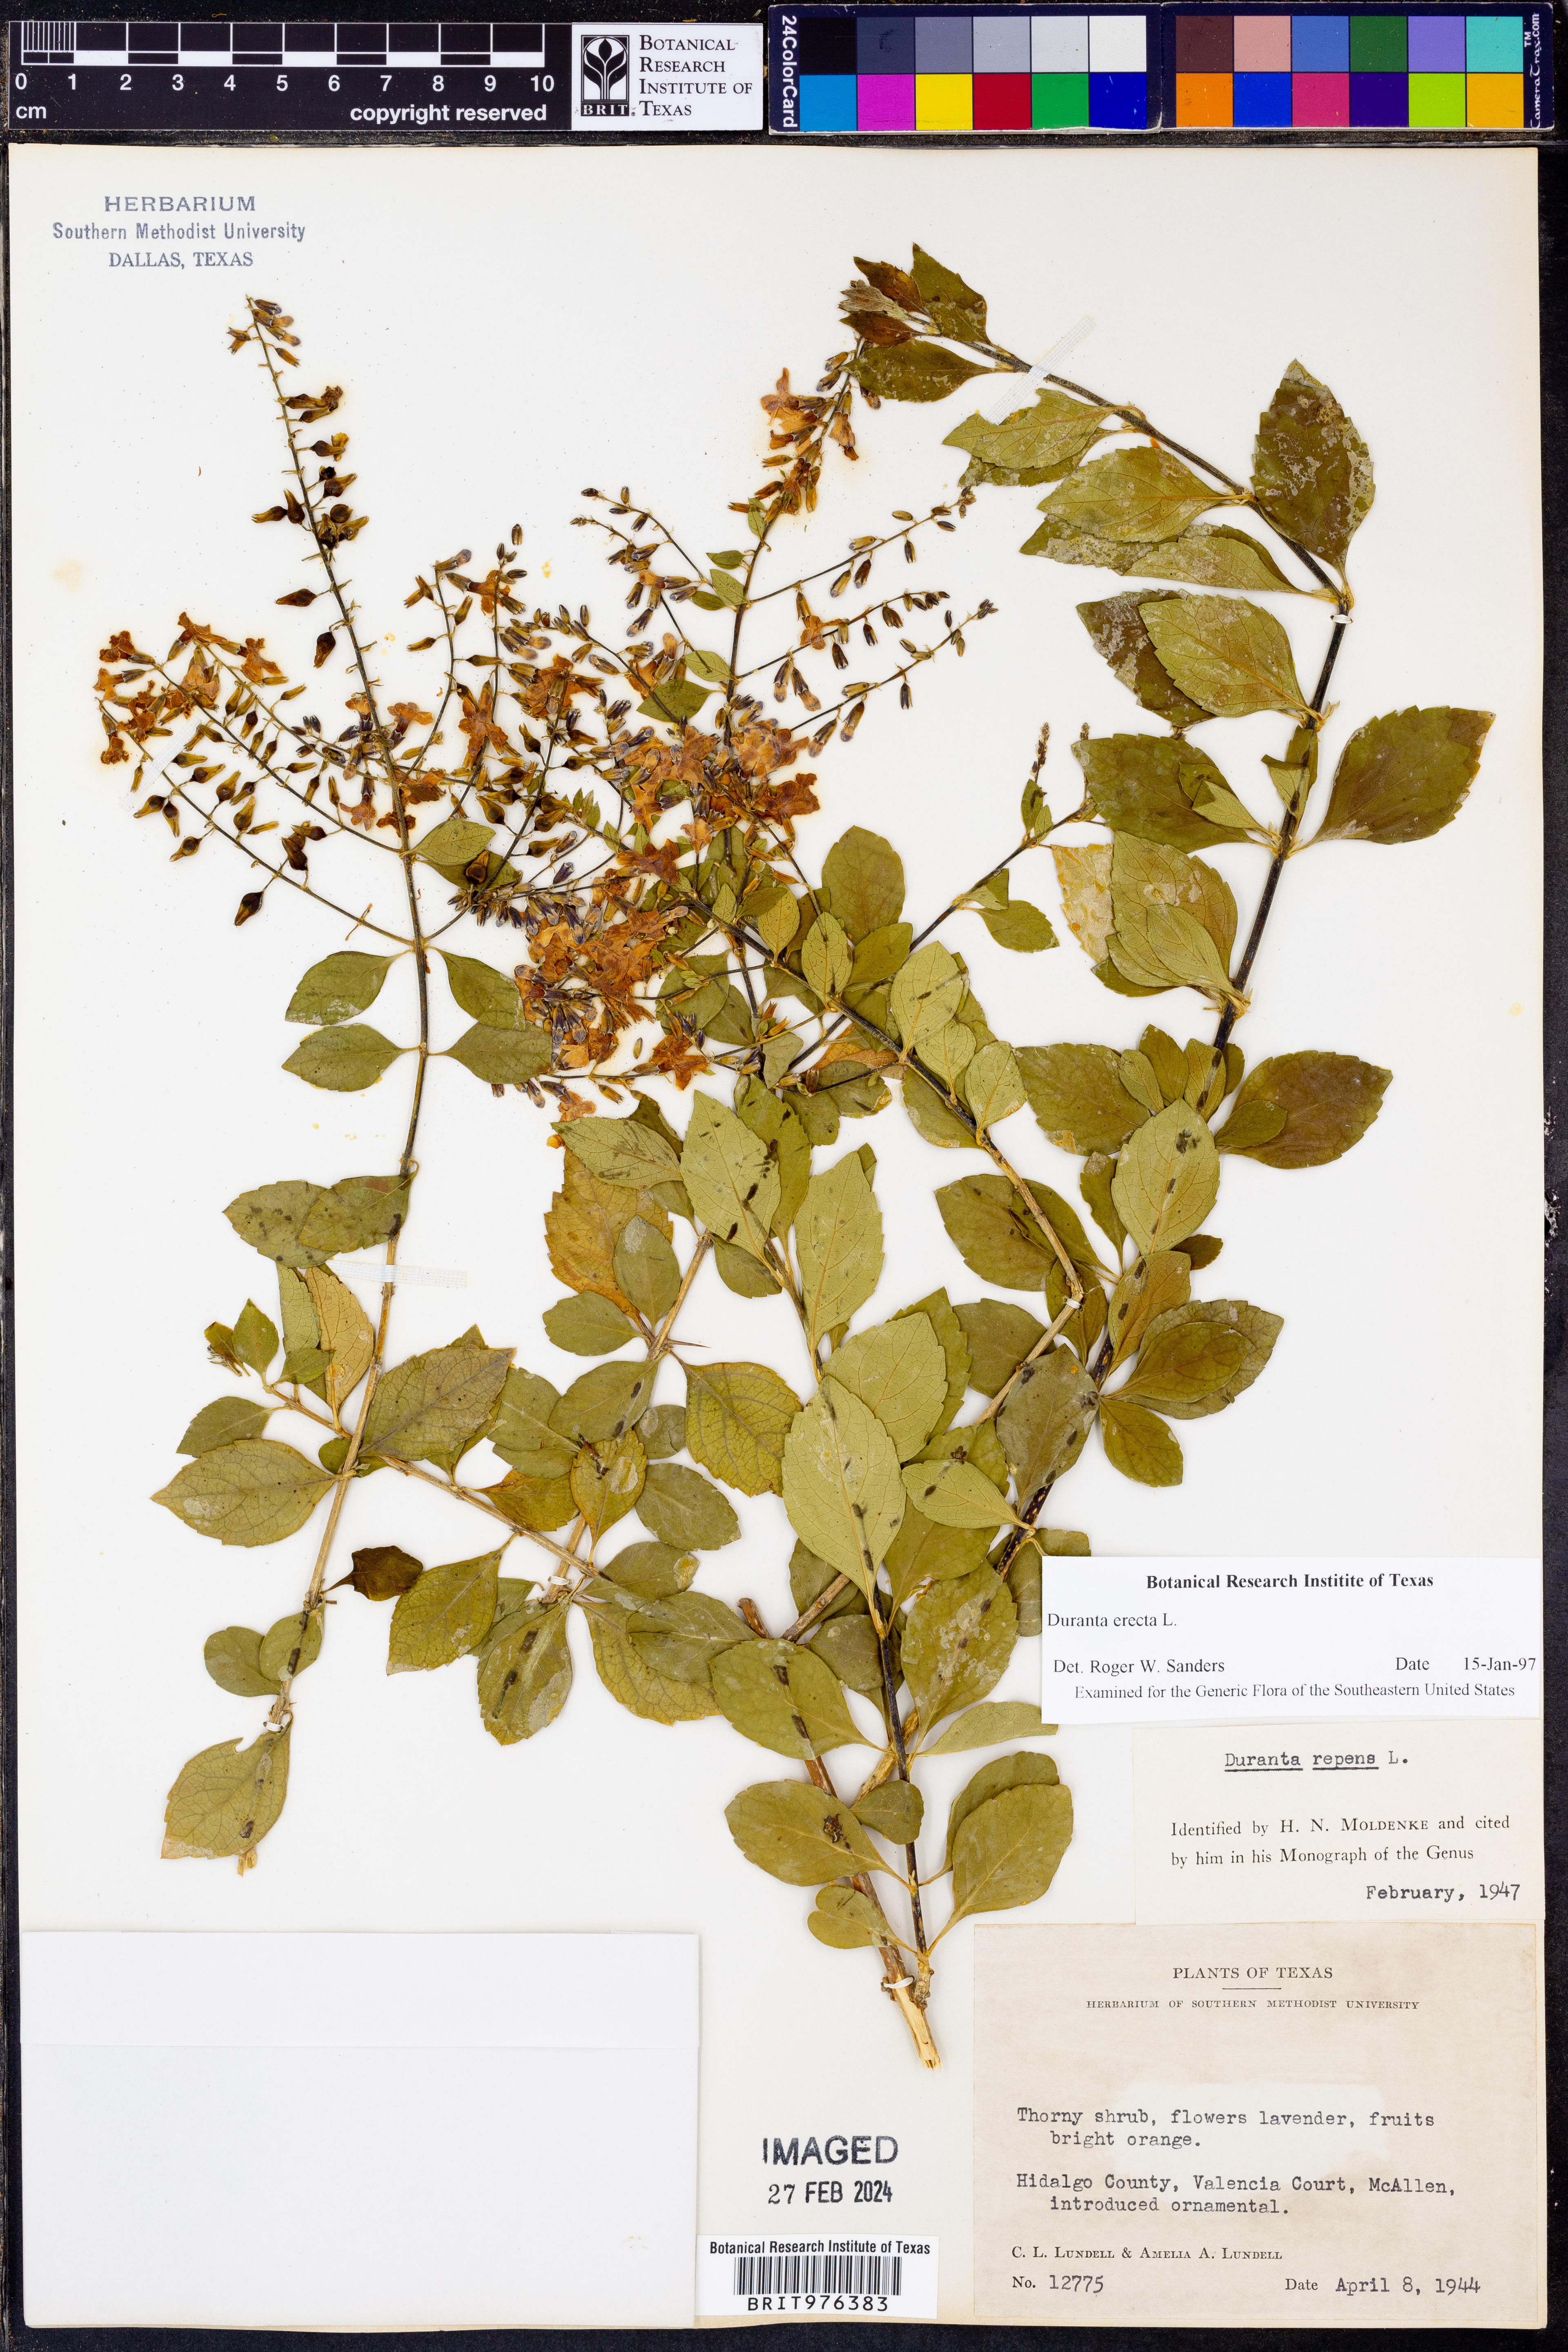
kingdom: Plantae
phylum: Tracheophyta
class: Magnoliopsida
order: Lamiales
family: Verbenaceae
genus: Duranta
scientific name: Duranta
